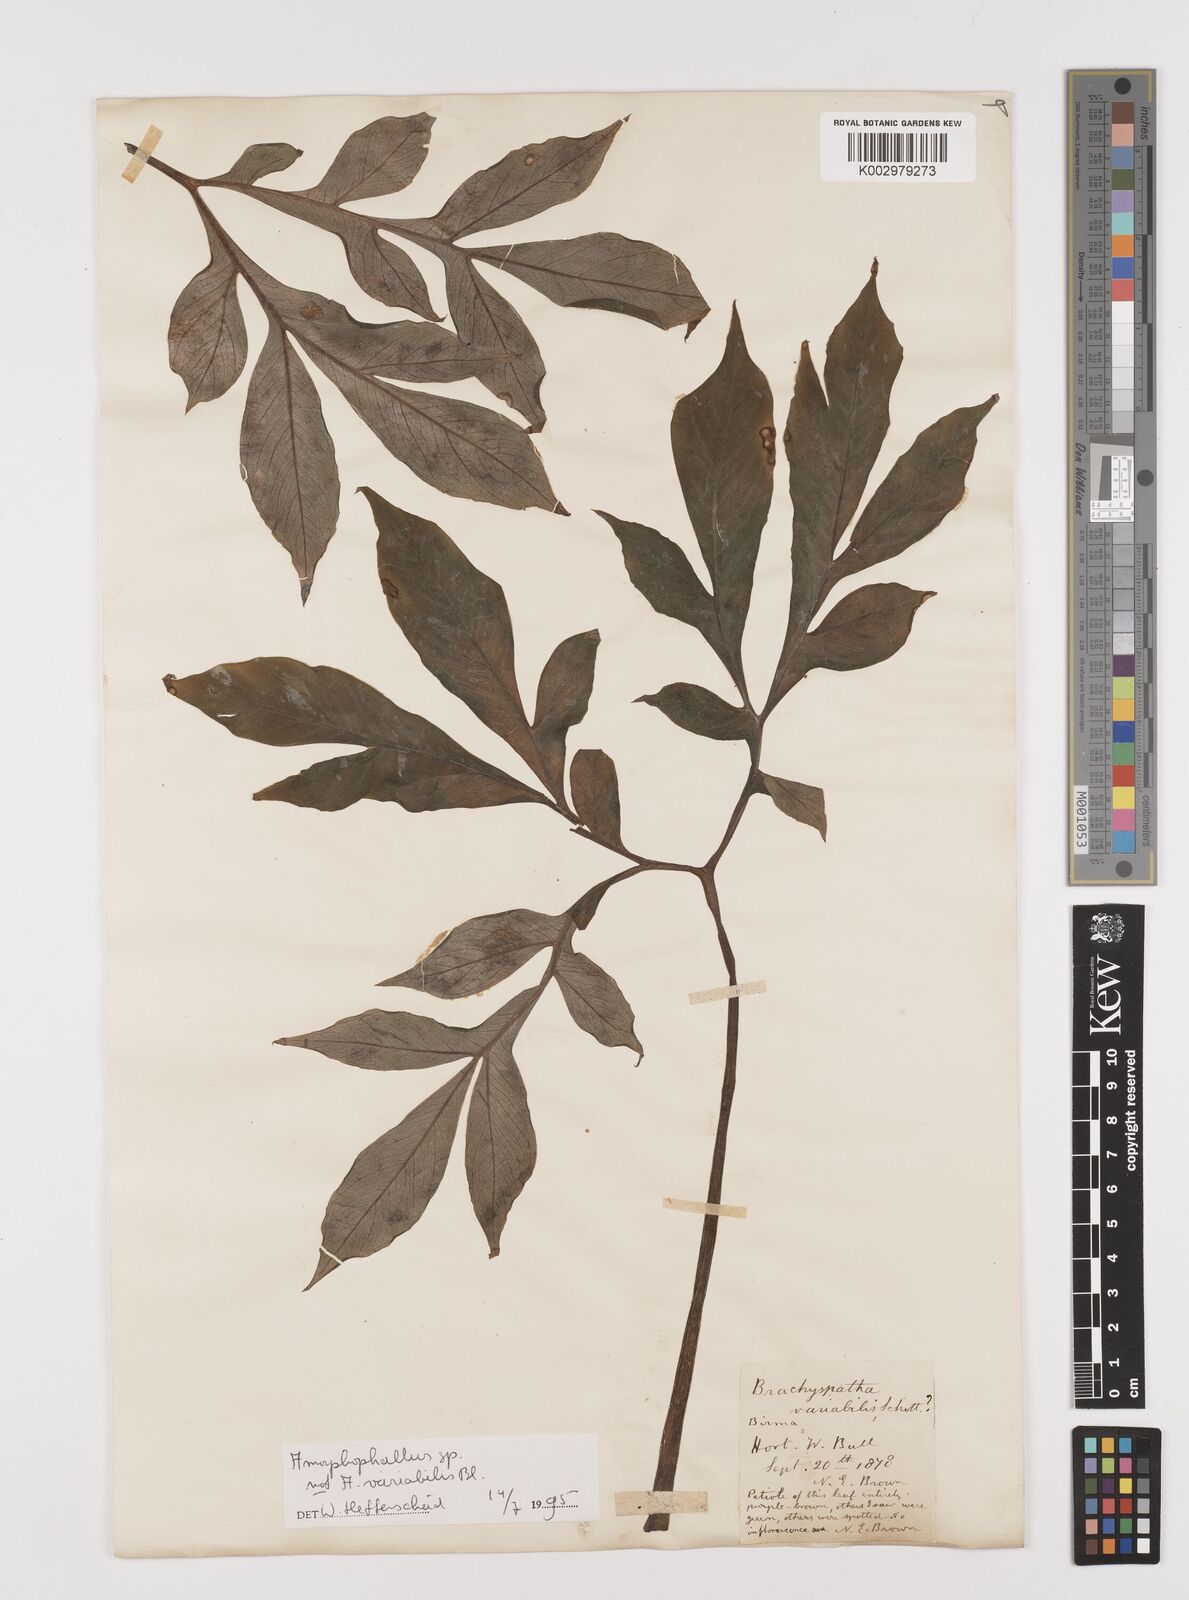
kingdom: Plantae
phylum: Tracheophyta
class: Liliopsida
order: Alismatales
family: Araceae
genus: Amorphophallus
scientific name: Amorphophallus
